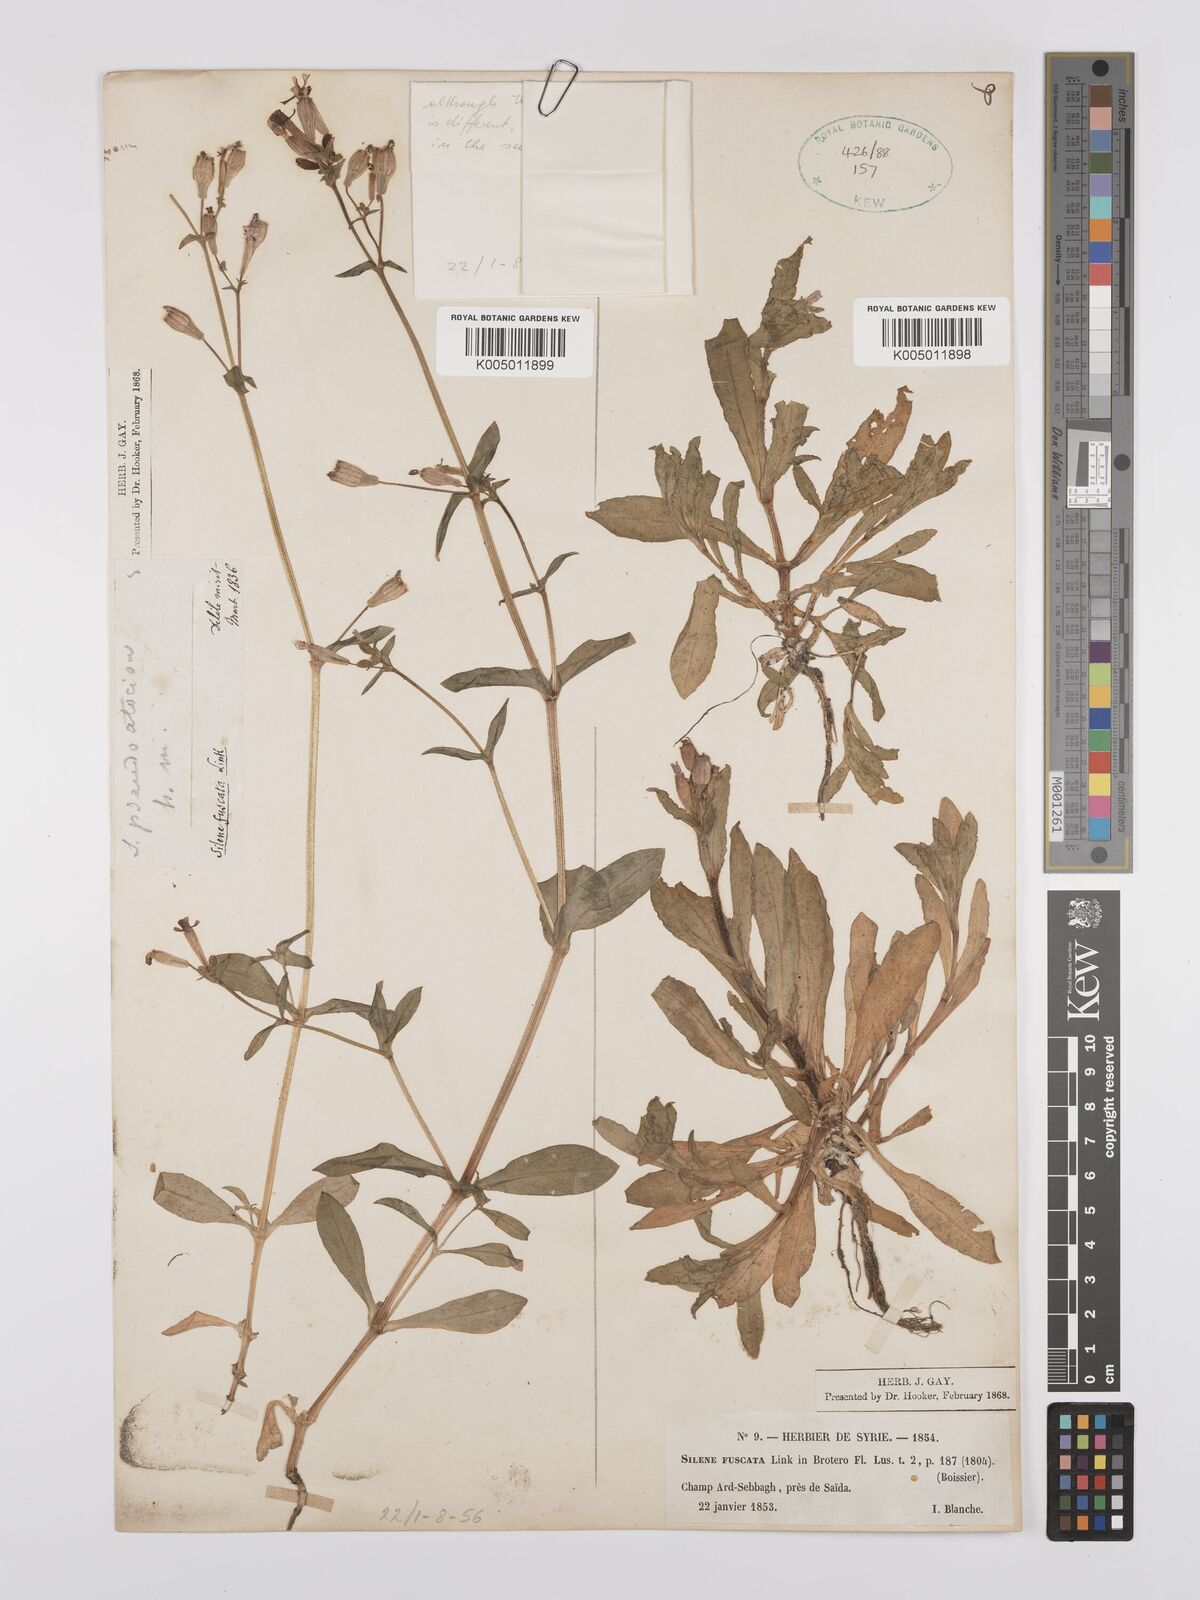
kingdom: Plantae
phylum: Tracheophyta
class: Magnoliopsida
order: Caryophyllales
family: Caryophyllaceae
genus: Silene
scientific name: Silene fuscata
